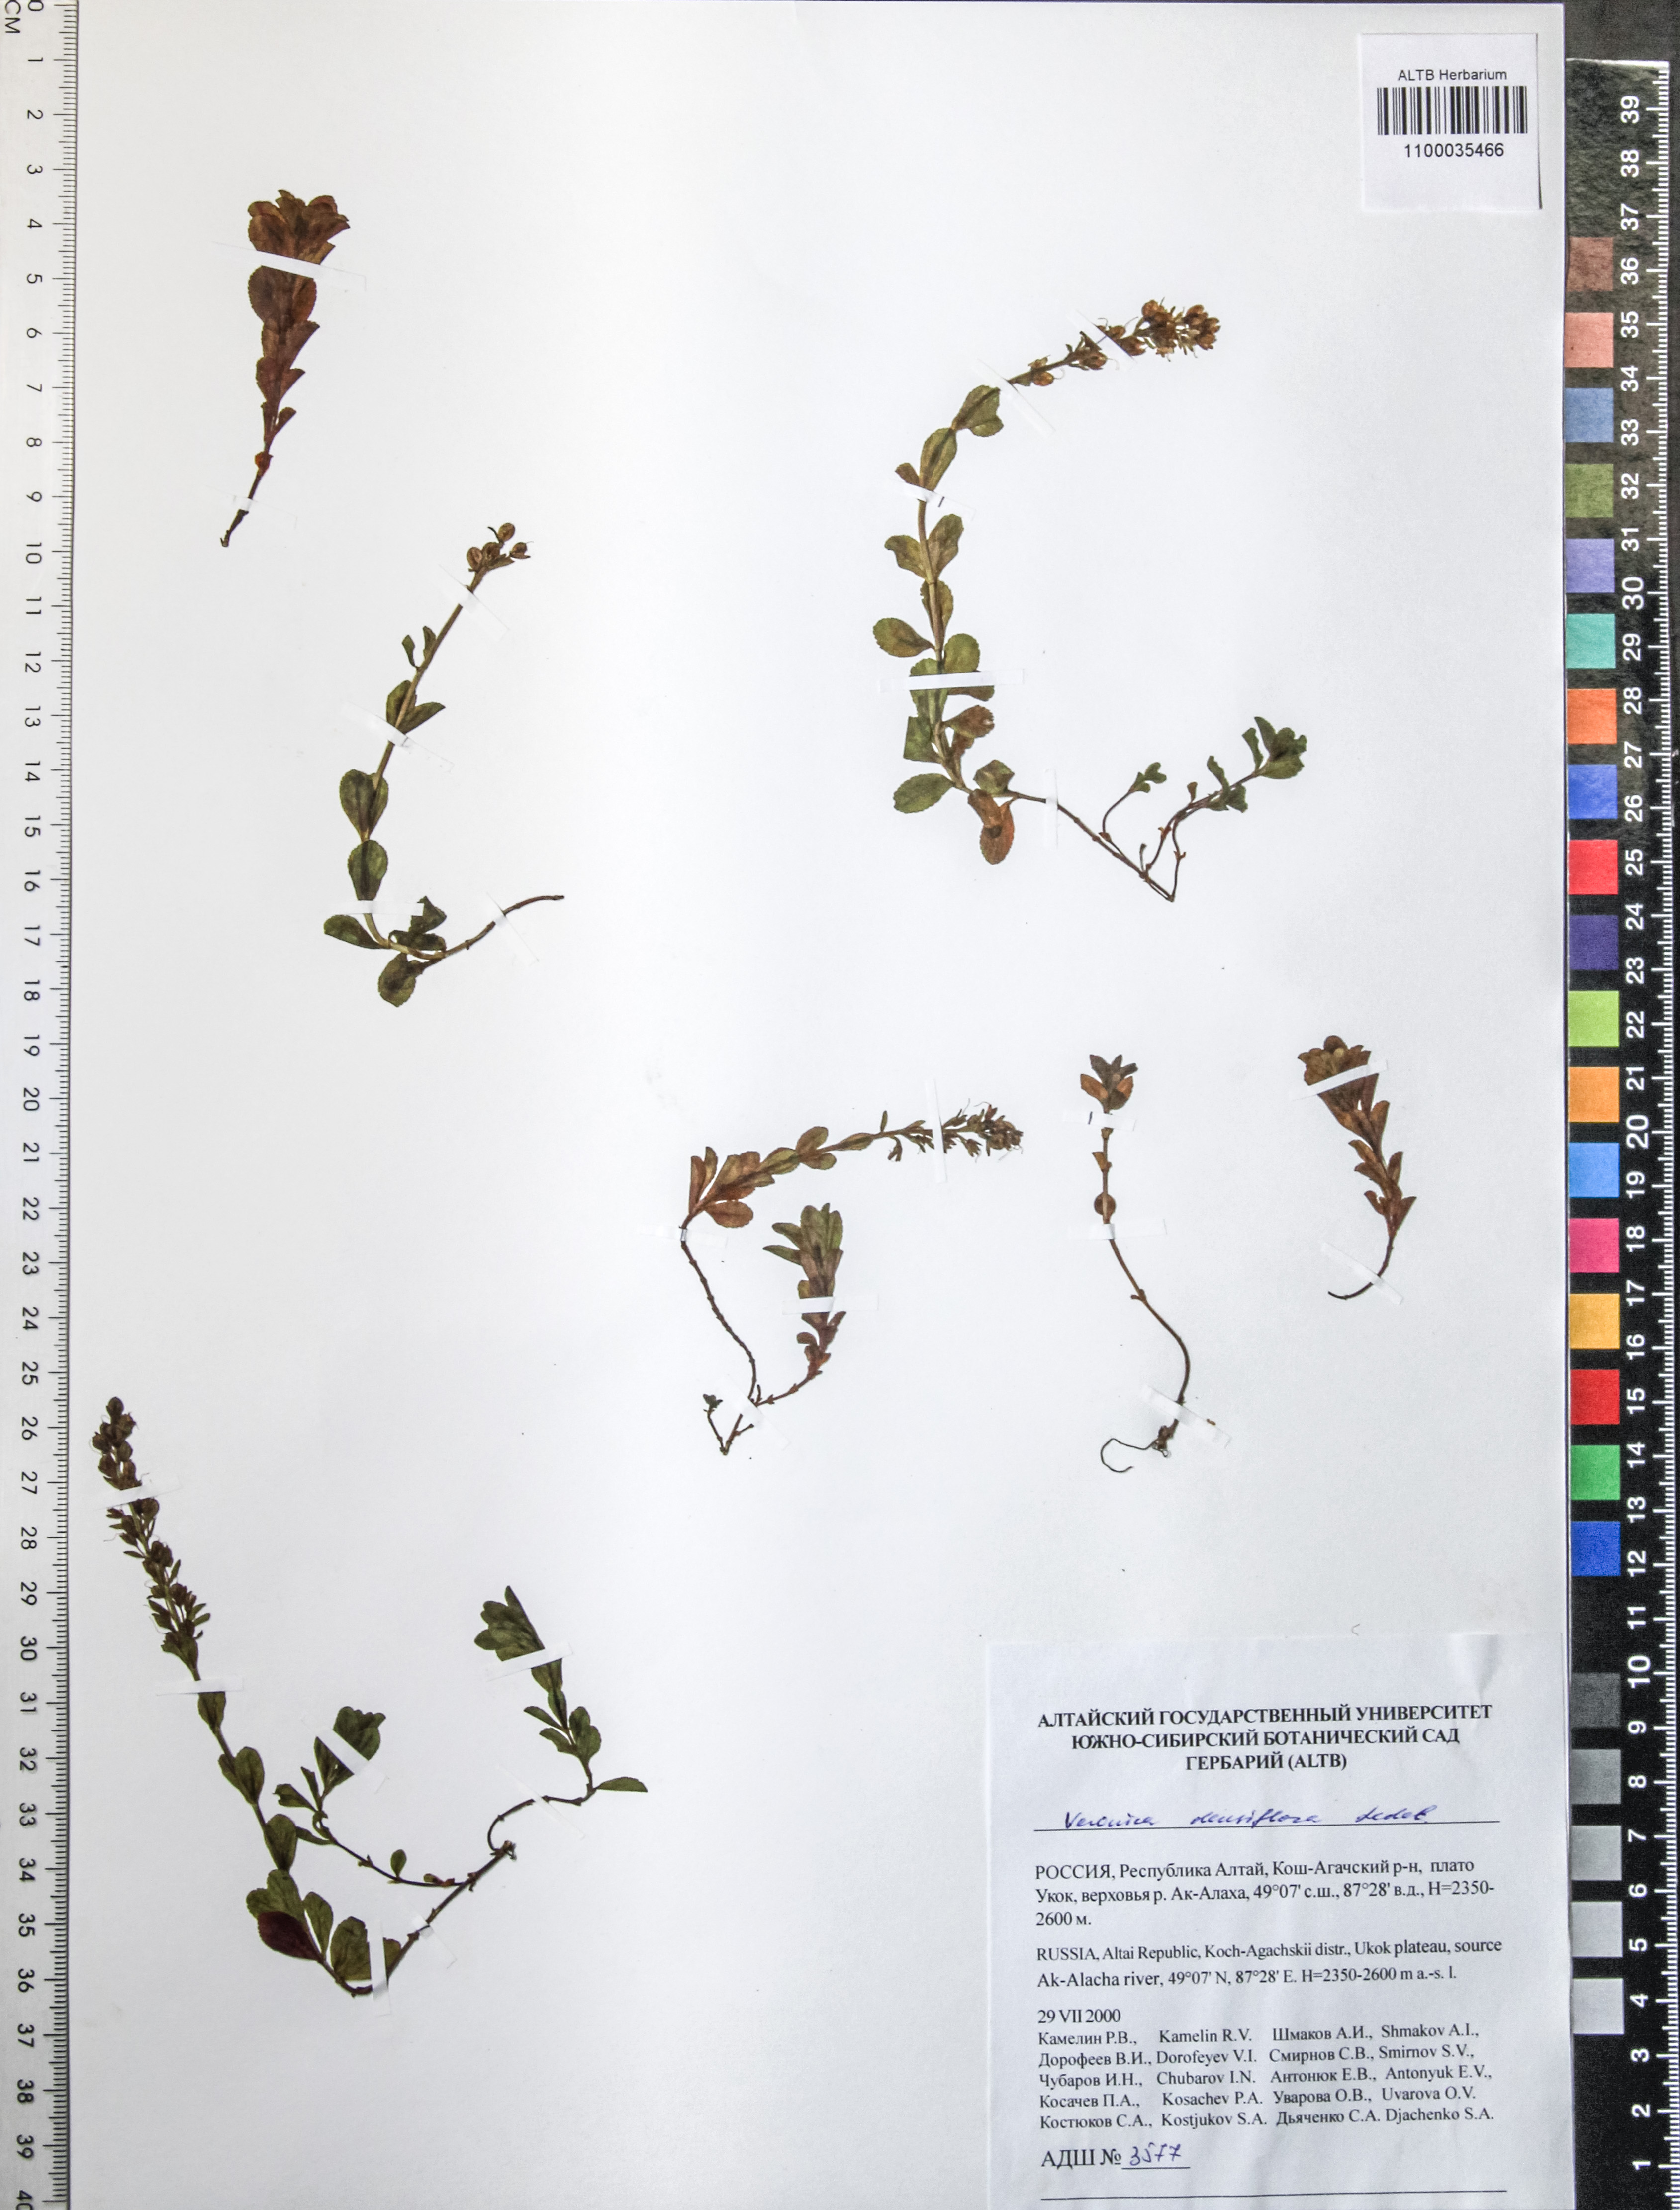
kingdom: Plantae
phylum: Tracheophyta
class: Magnoliopsida
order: Lamiales
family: Plantaginaceae
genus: Veronica
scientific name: Veronica densiflora
